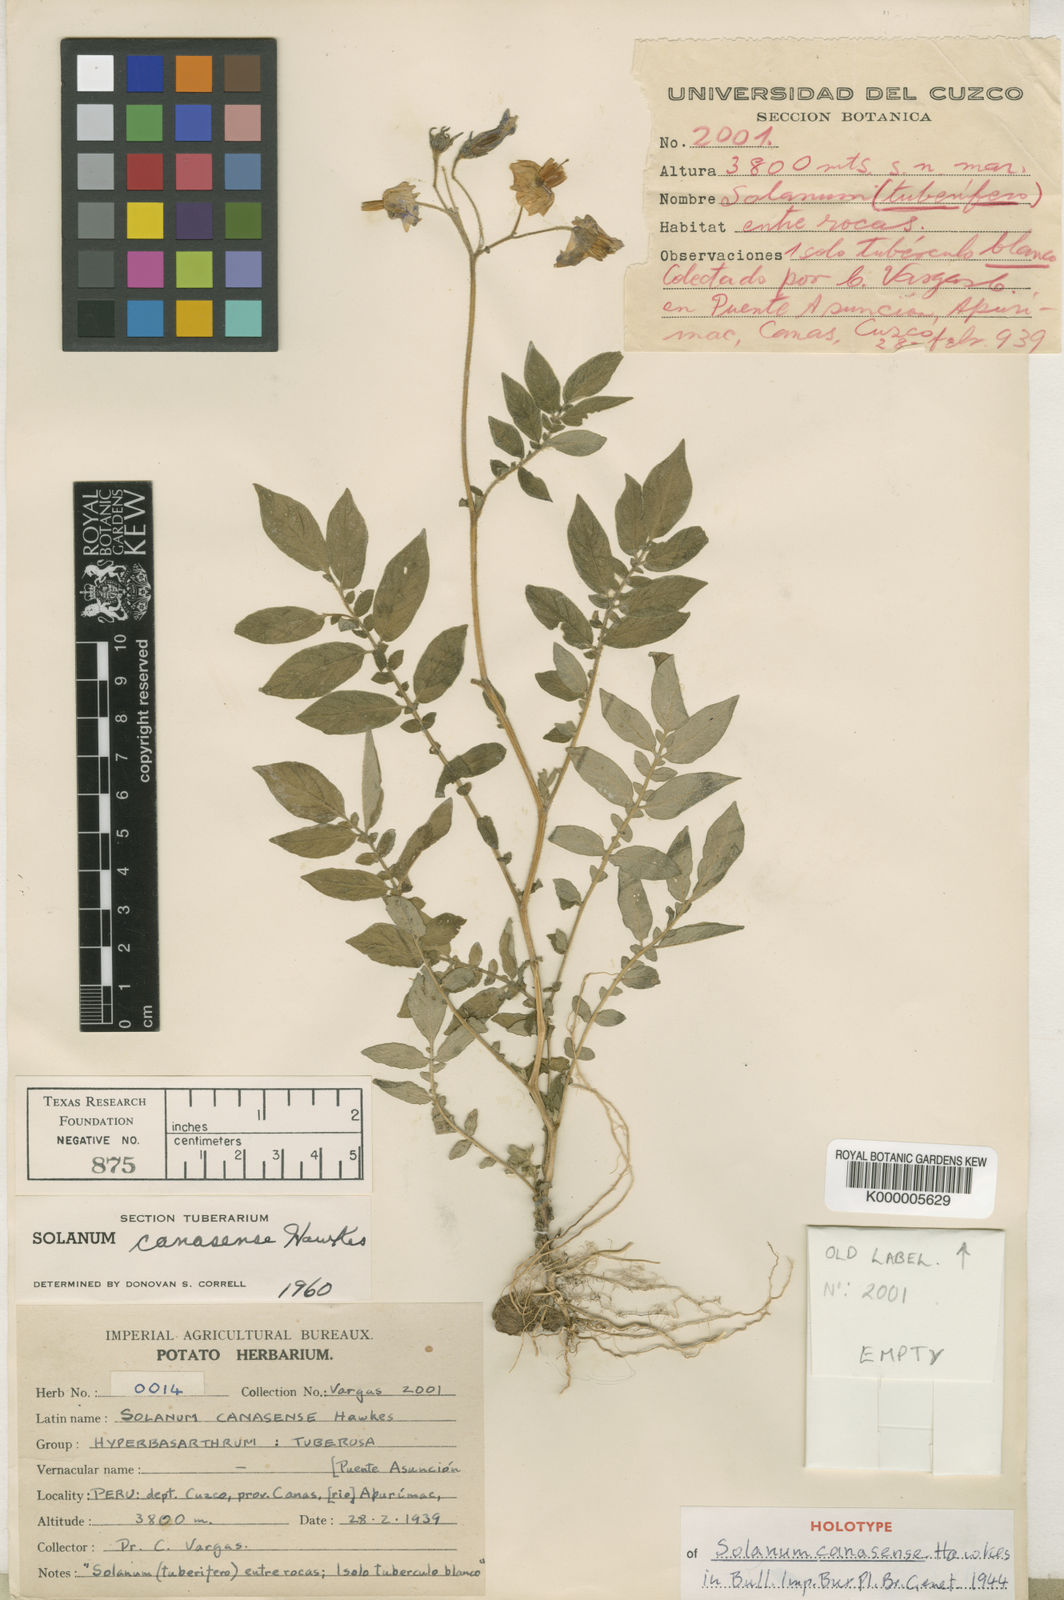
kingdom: Plantae
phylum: Tracheophyta
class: Magnoliopsida
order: Solanales
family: Solanaceae
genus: Solanum
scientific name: Solanum candolleanum
